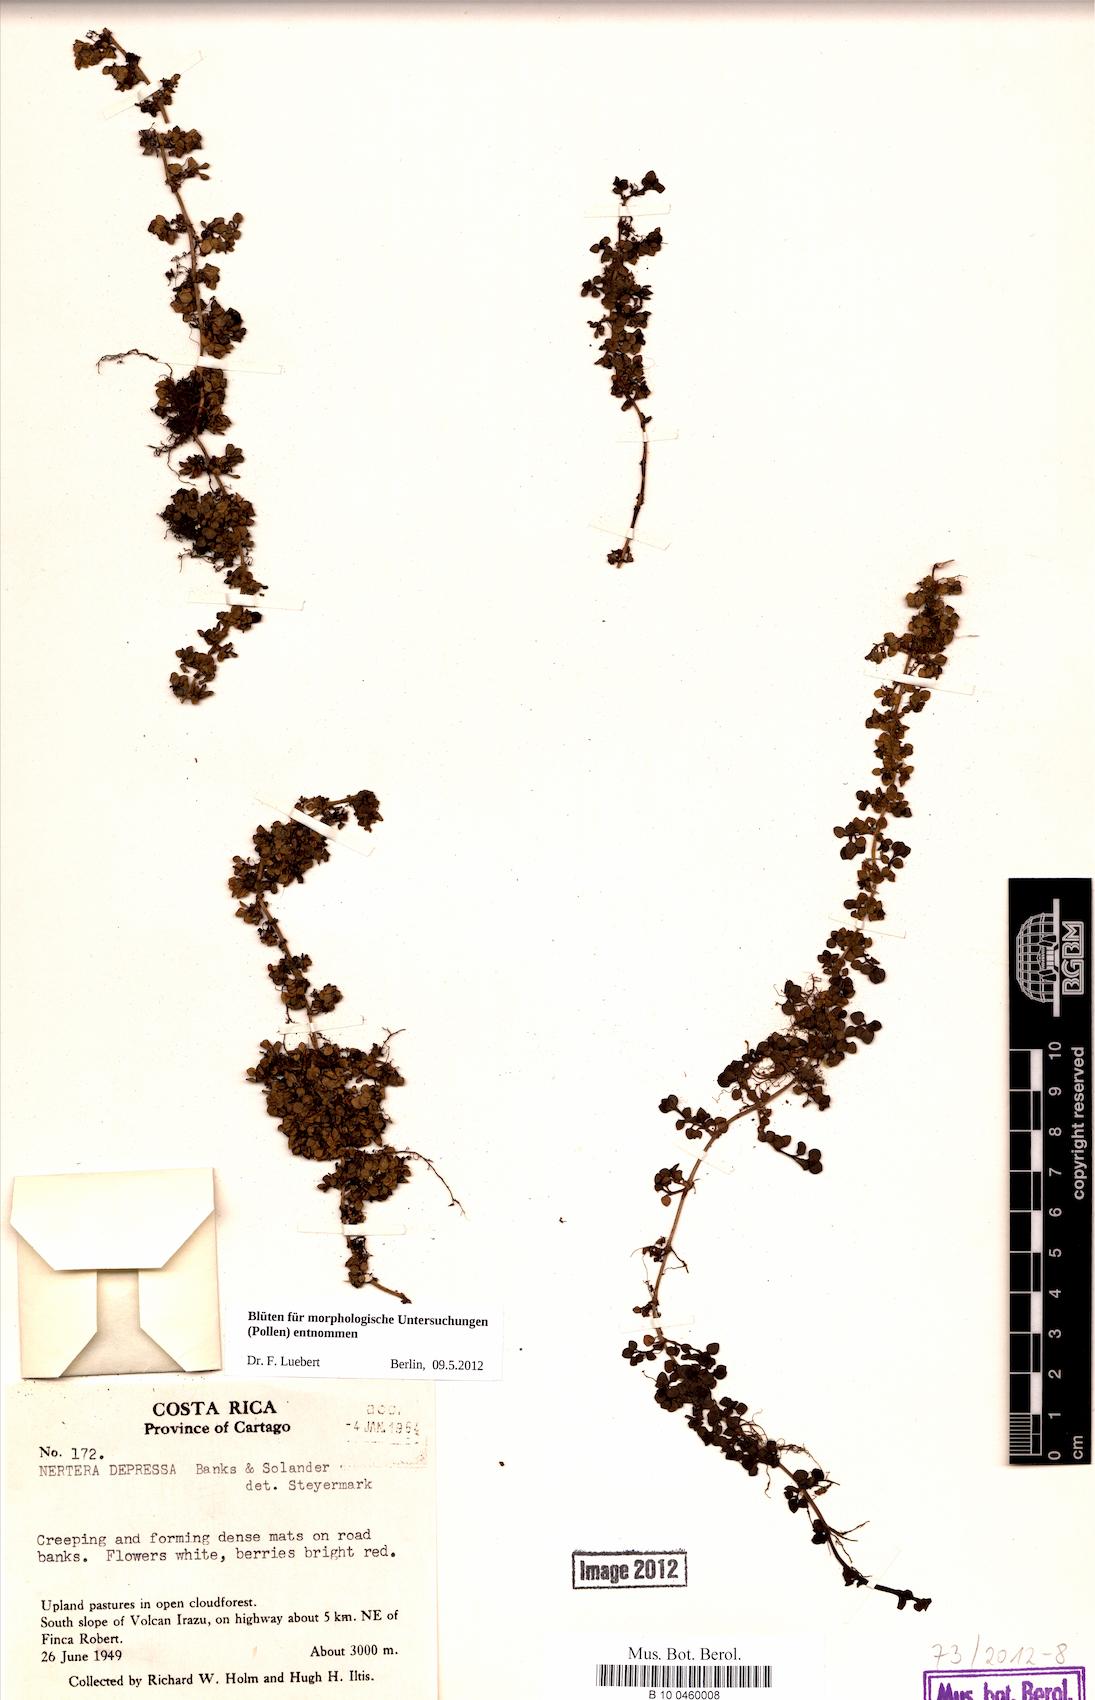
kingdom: Plantae
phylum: Tracheophyta
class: Magnoliopsida
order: Gentianales
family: Rubiaceae
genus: Nertera
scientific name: Nertera granadensis
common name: Beadplant
